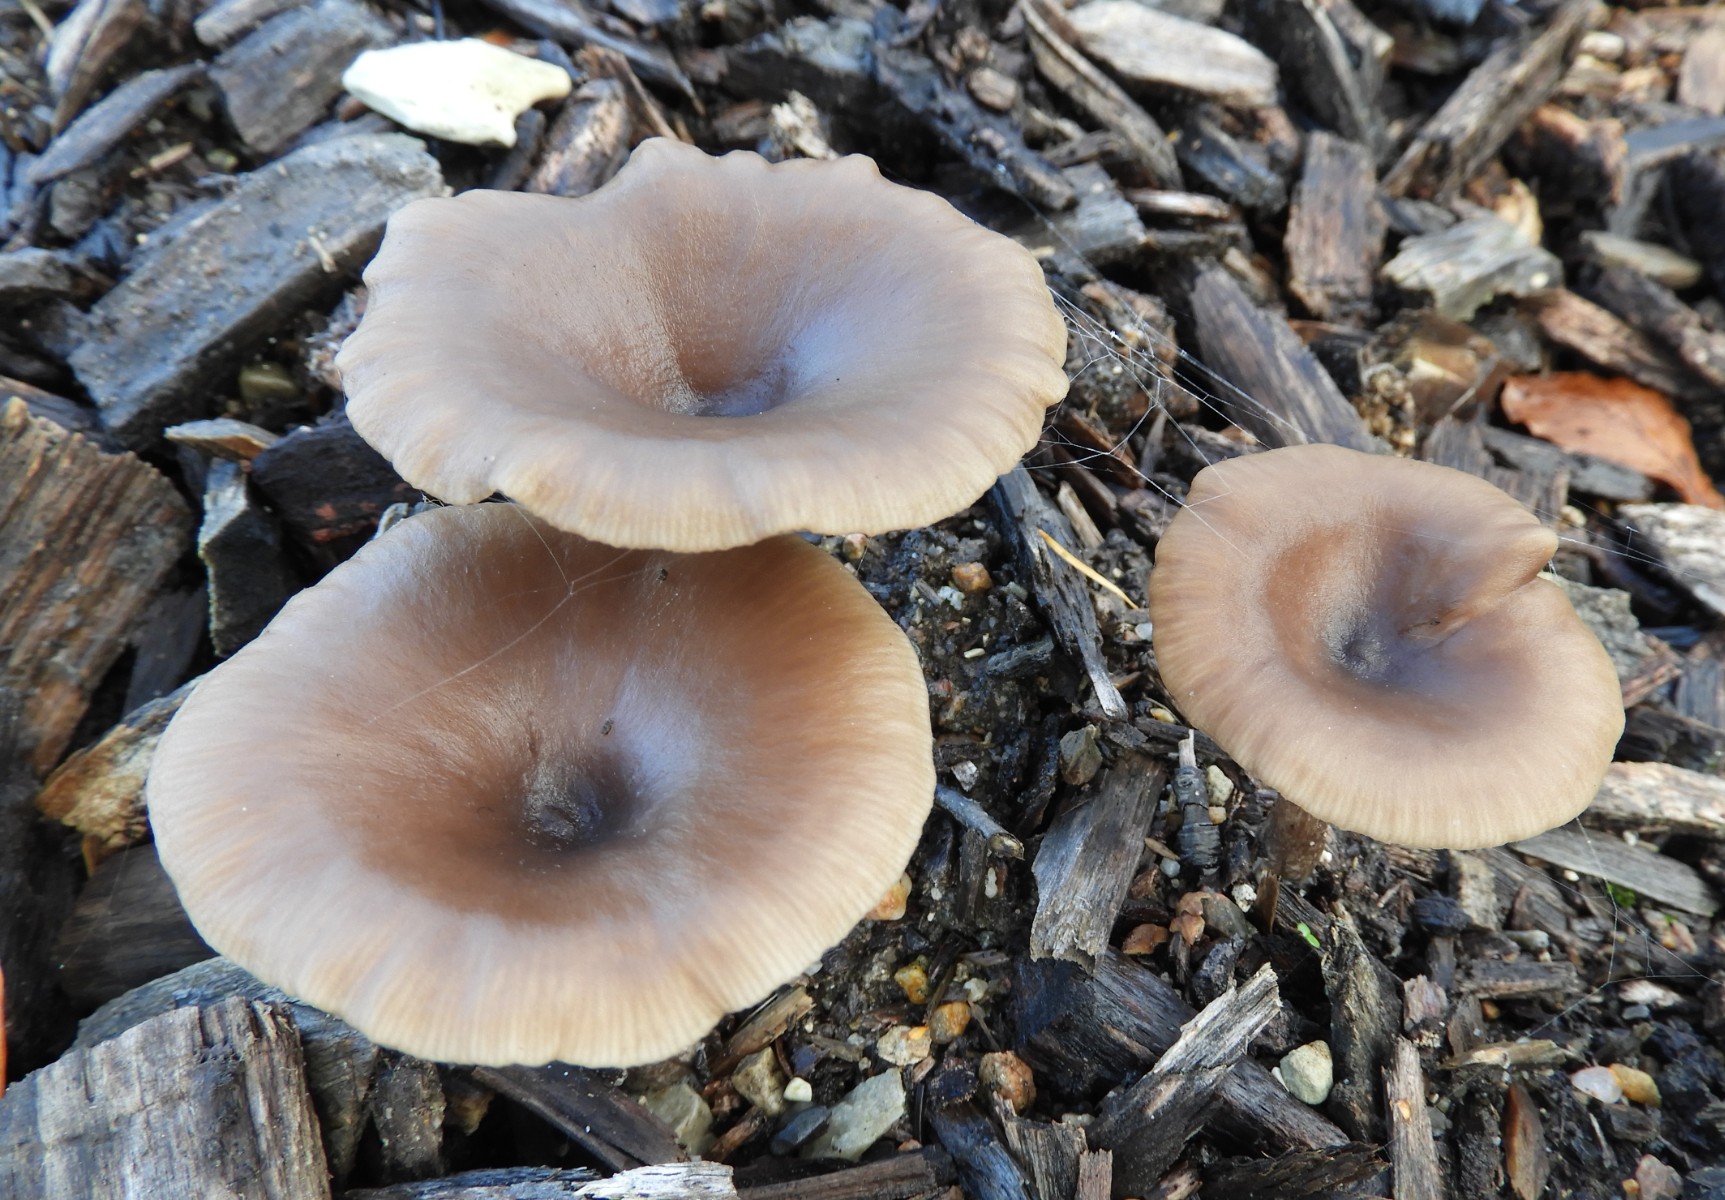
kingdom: Fungi
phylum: Basidiomycota
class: Agaricomycetes
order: Agaricales
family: Pseudoclitocybaceae
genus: Pseudoclitocybe
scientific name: Pseudoclitocybe cyathiformis
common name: almindelig bægertragthat
